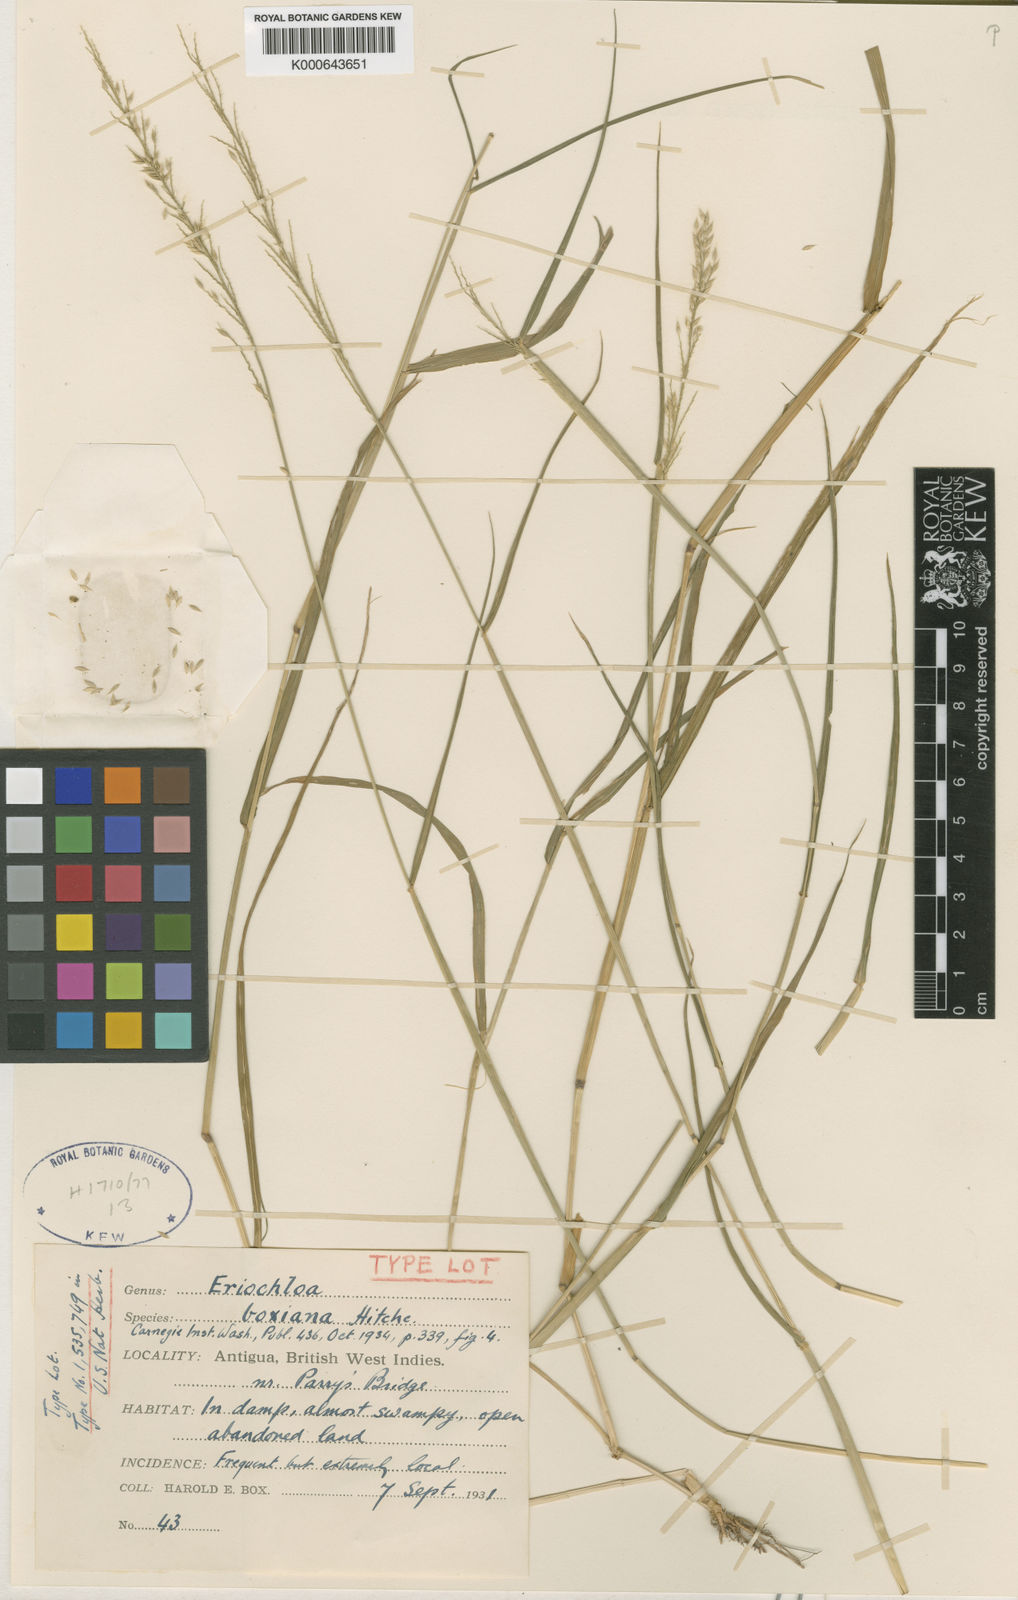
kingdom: Plantae
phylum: Tracheophyta
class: Liliopsida
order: Poales
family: Poaceae
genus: Eriochloa
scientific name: Eriochloa boxiana
